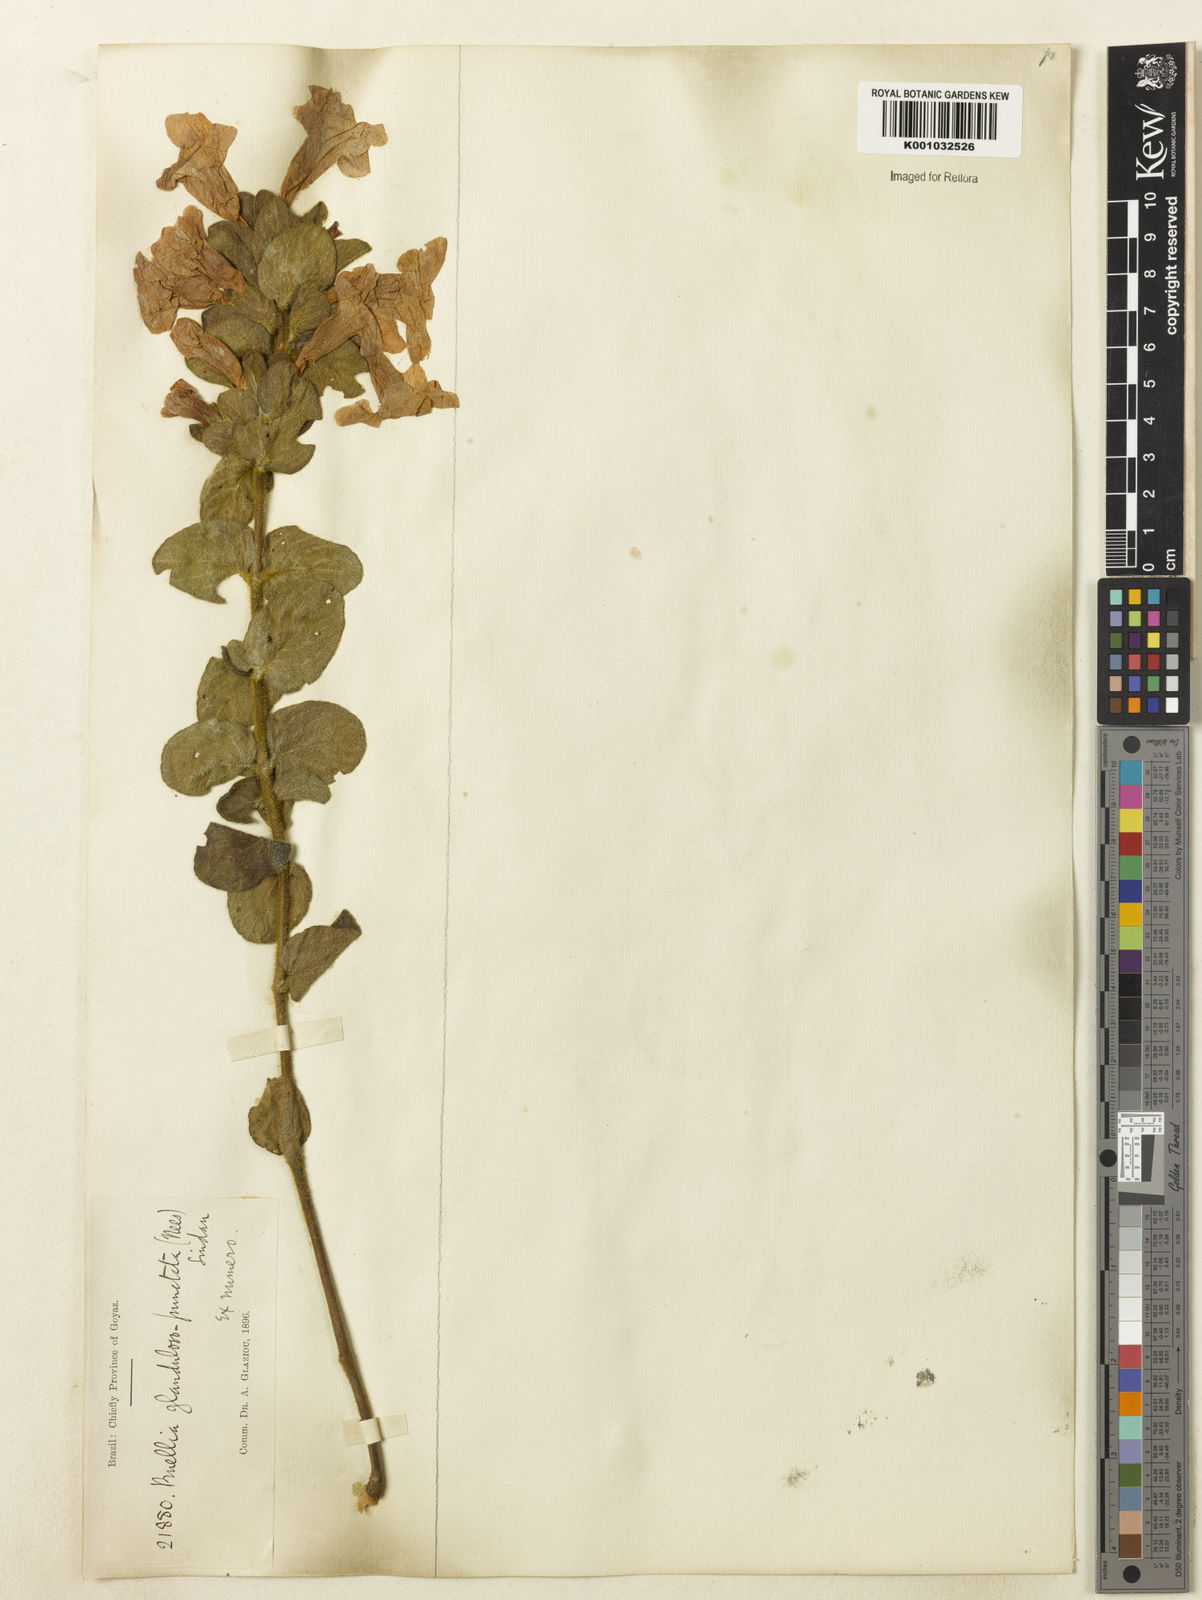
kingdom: Plantae
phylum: Tracheophyta
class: Magnoliopsida
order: Lamiales
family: Acanthaceae
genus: Ruellia
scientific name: Ruellia multifolia
